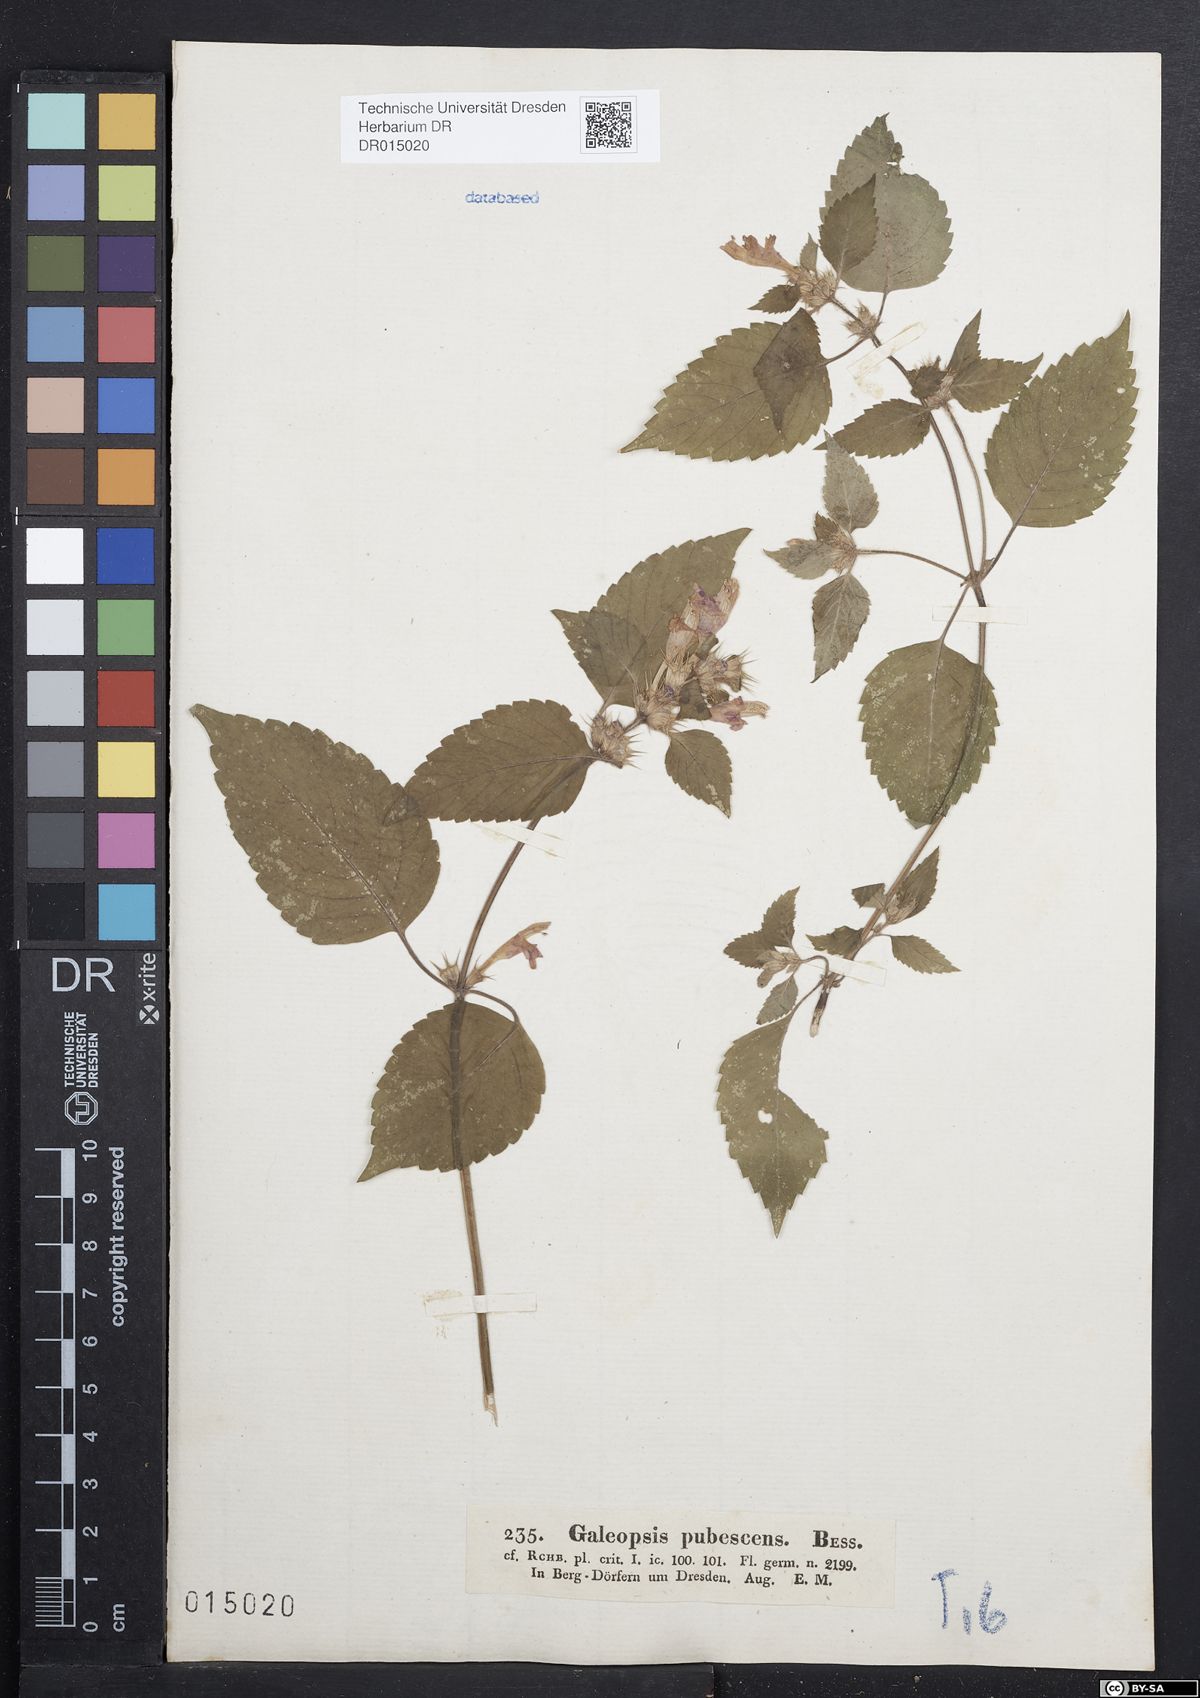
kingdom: Plantae
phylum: Tracheophyta
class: Magnoliopsida
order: Lamiales
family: Lamiaceae
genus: Galeopsis
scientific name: Galeopsis pubescens
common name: Downy hemp-nettle
